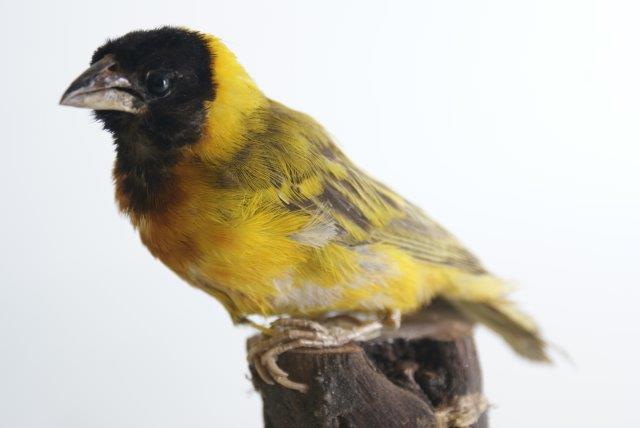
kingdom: Animalia
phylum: Chordata
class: Aves
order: Passeriformes
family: Ploceidae
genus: Ploceus
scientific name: Ploceus vitellinus
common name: Vitelline masked weaver
